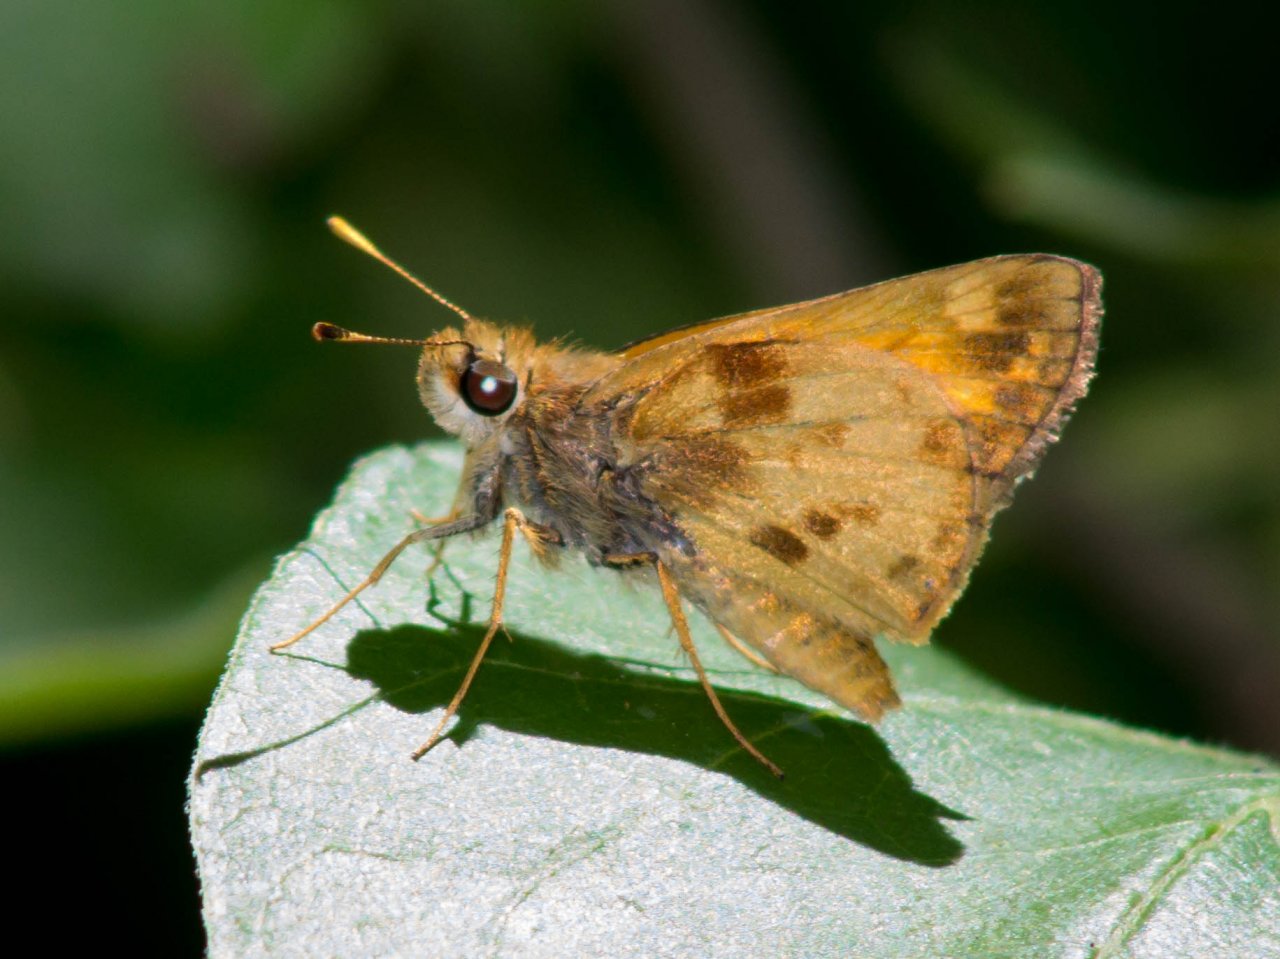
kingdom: Animalia
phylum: Arthropoda
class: Insecta
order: Lepidoptera
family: Hesperiidae
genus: Lon
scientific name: Lon zabulon
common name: Zabulon Skipper
